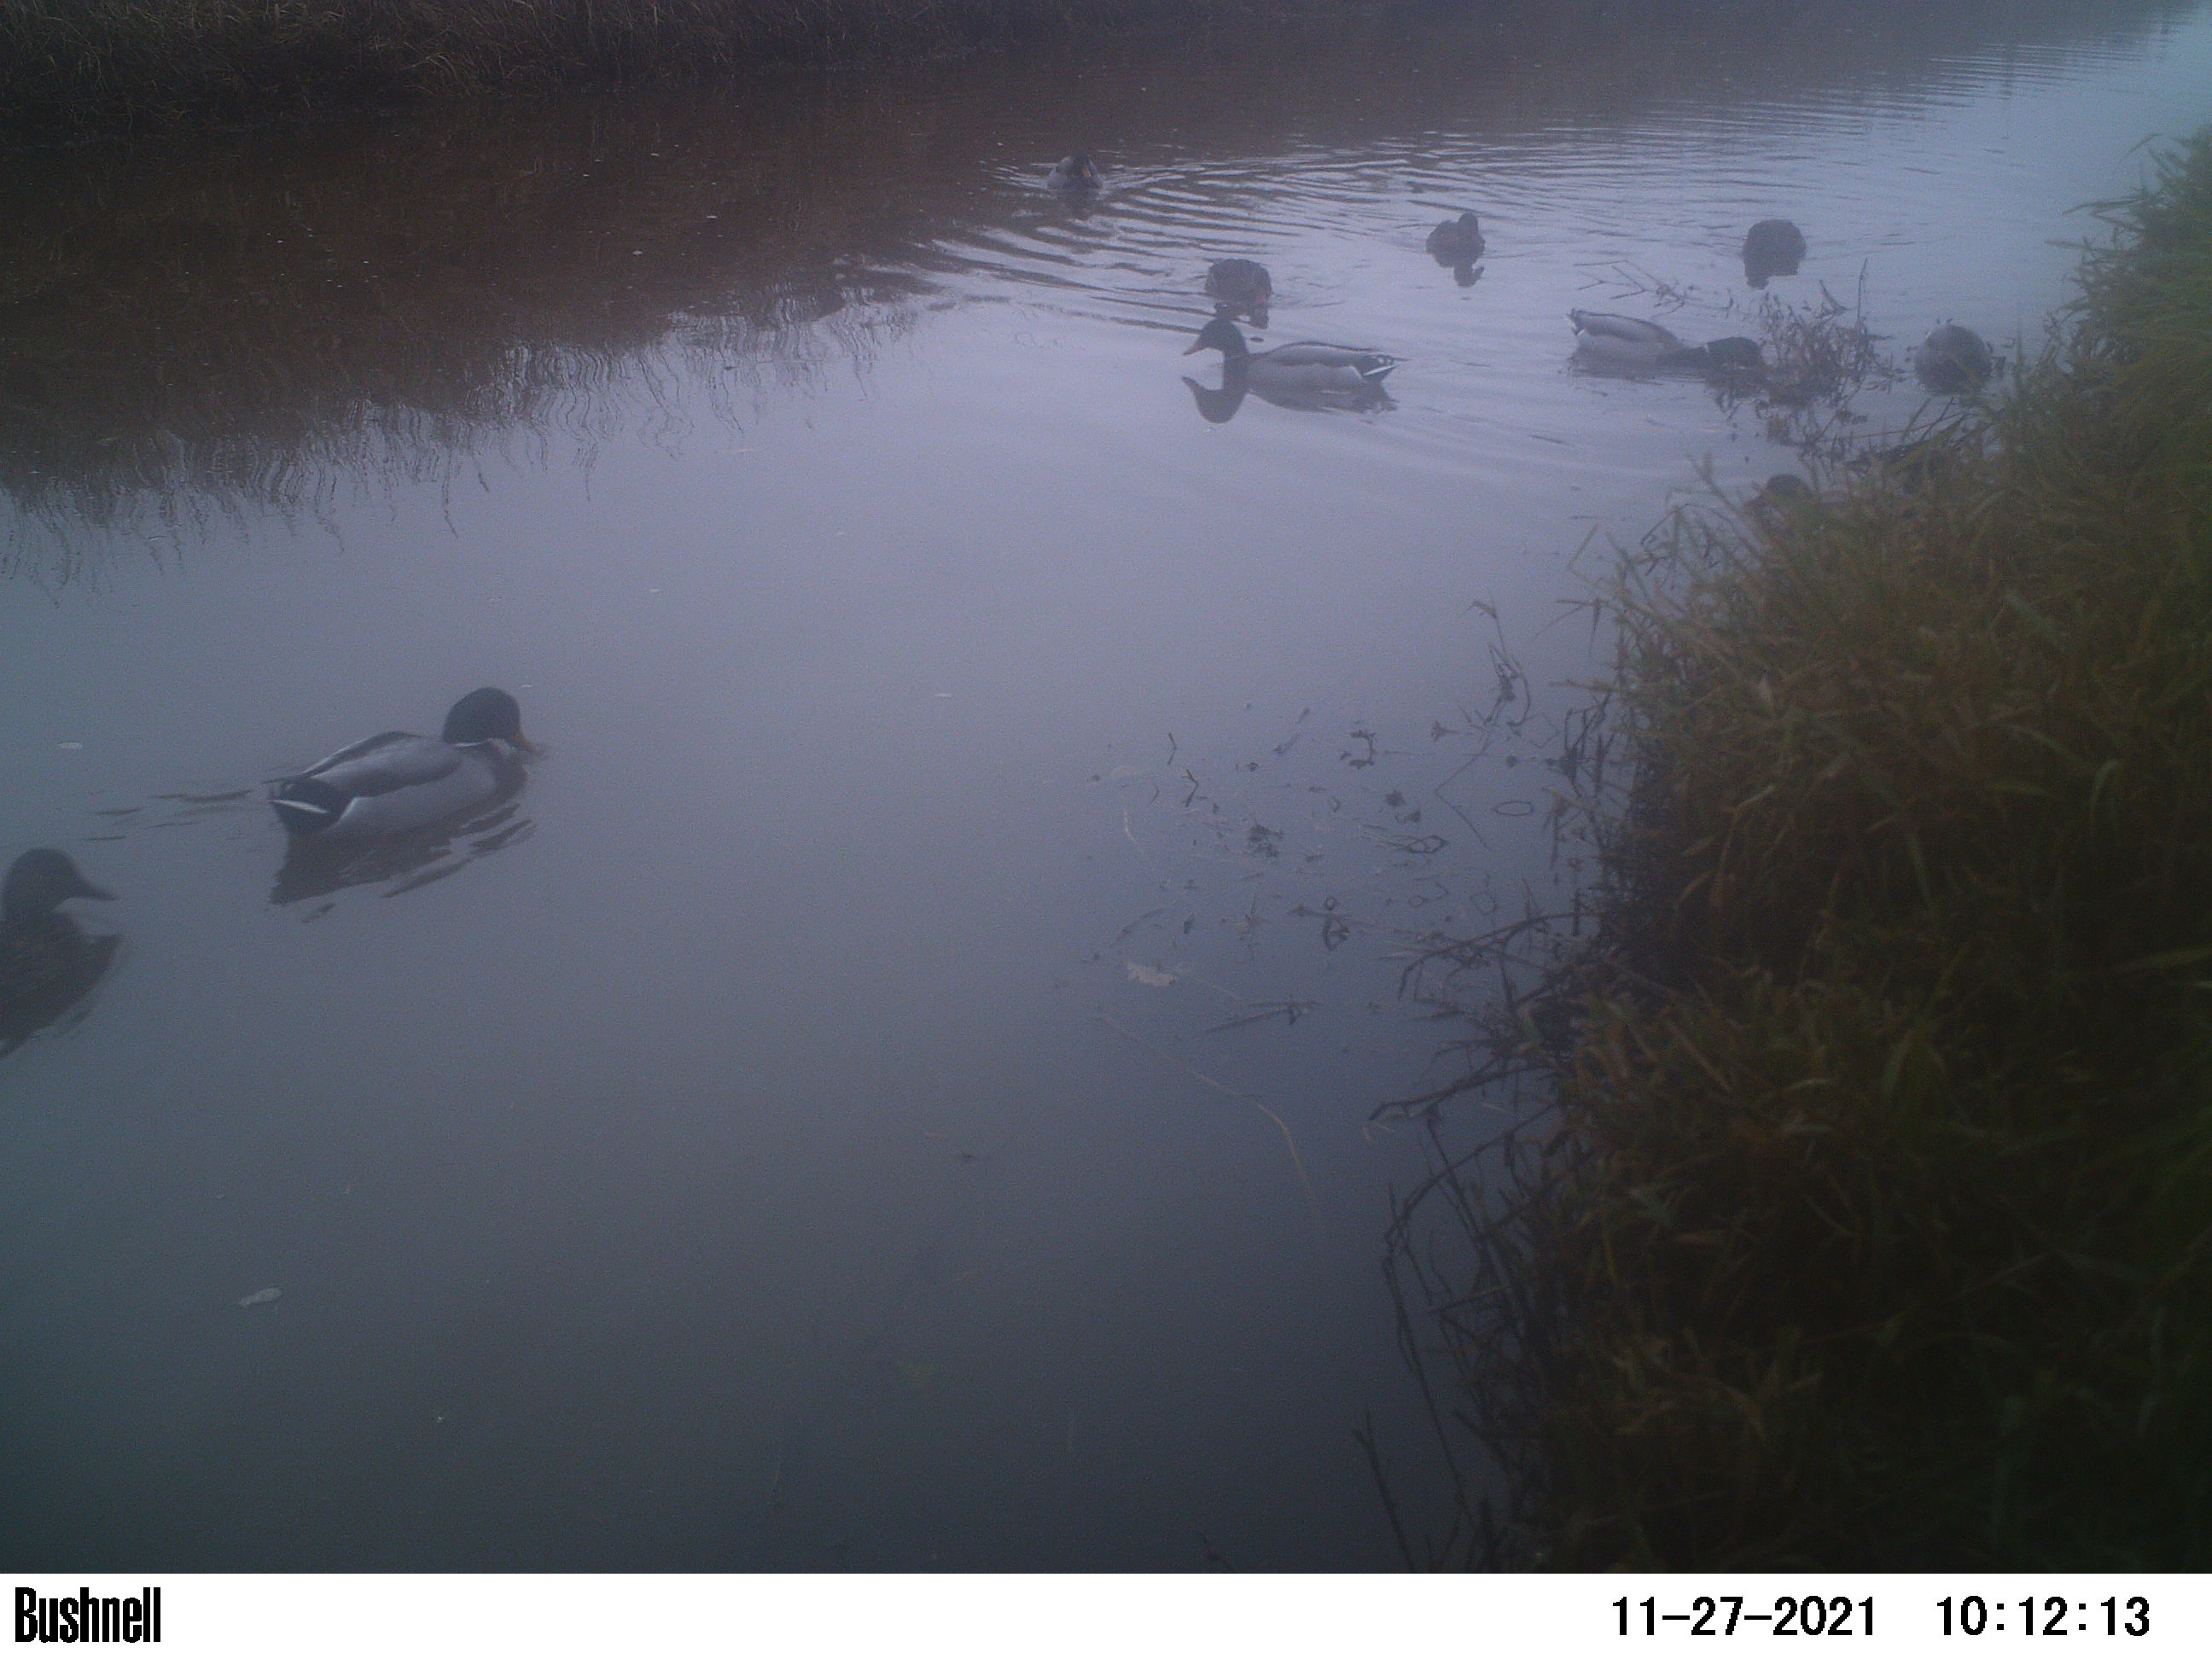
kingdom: Animalia
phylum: Chordata
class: Aves
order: Anseriformes
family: Anatidae
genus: Anas
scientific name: Anas
